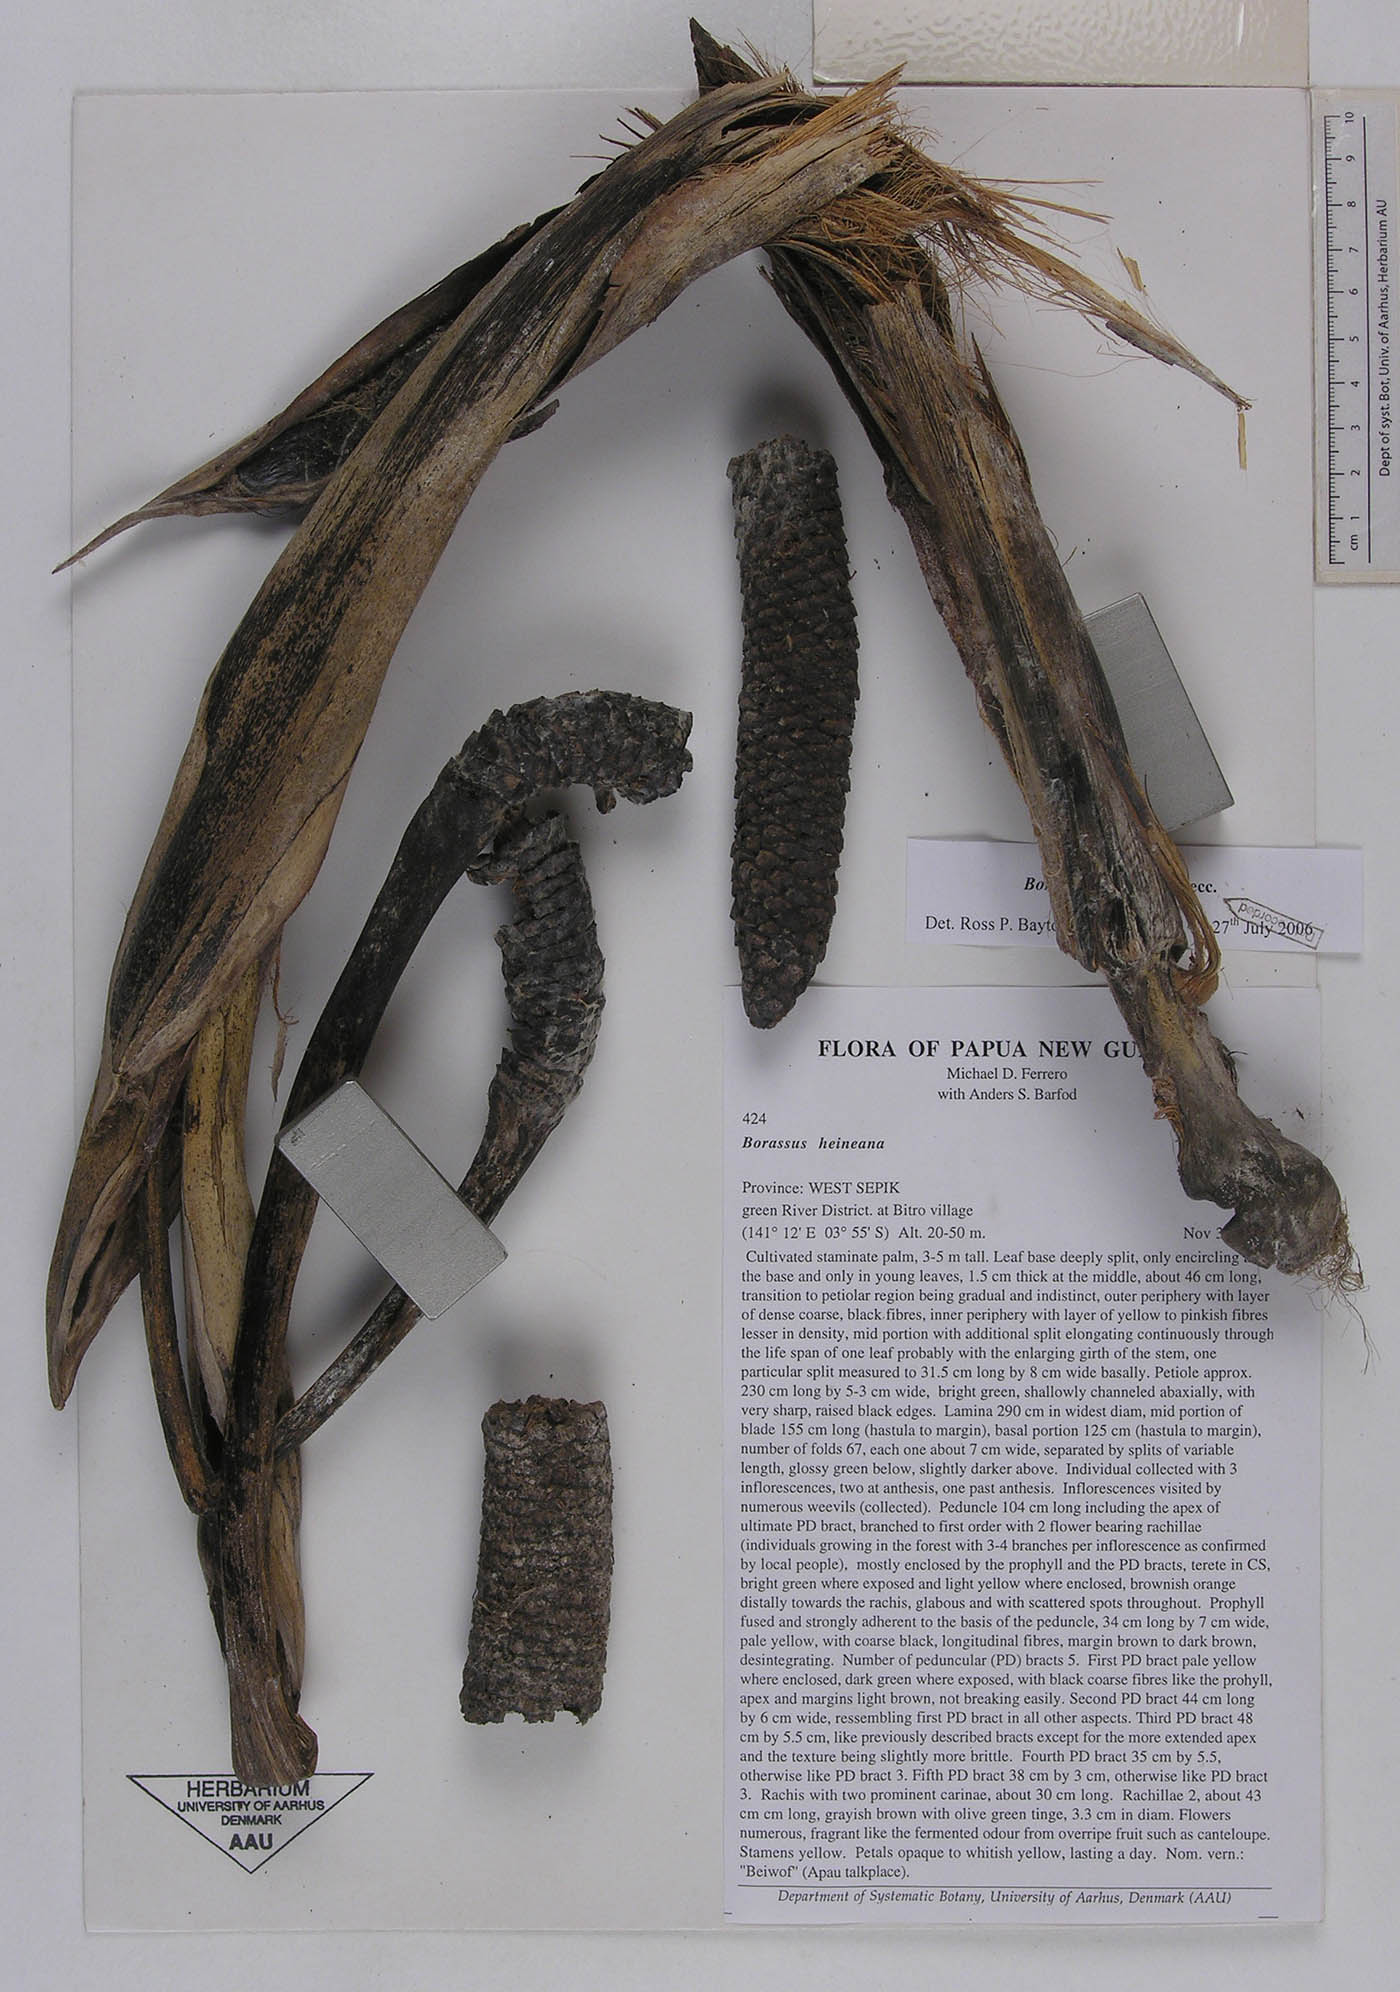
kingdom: Plantae
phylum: Tracheophyta
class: Liliopsida
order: Arecales
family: Arecaceae
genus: Borassus
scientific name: Borassus heineanus
